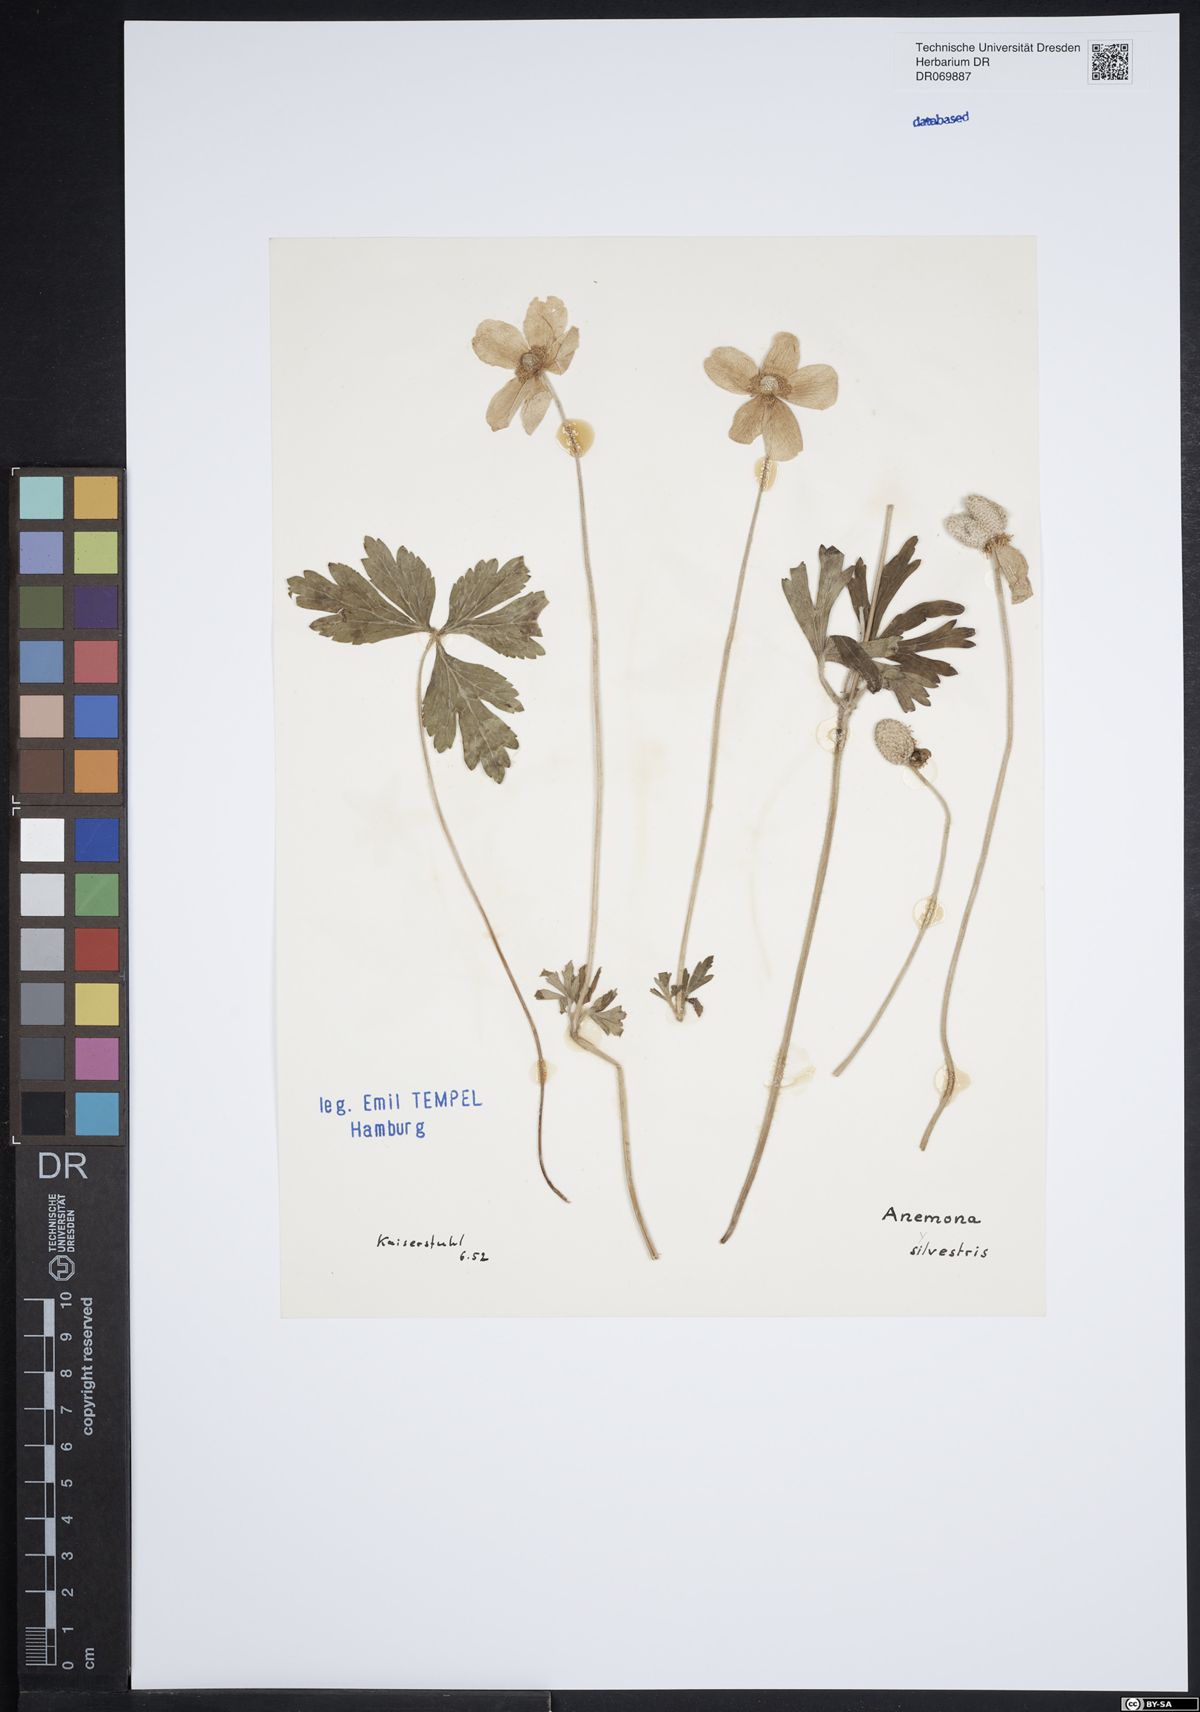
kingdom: Plantae
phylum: Tracheophyta
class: Magnoliopsida
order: Ranunculales
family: Ranunculaceae
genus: Anemone
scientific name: Anemone sylvestris
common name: Snowdrop anemone
